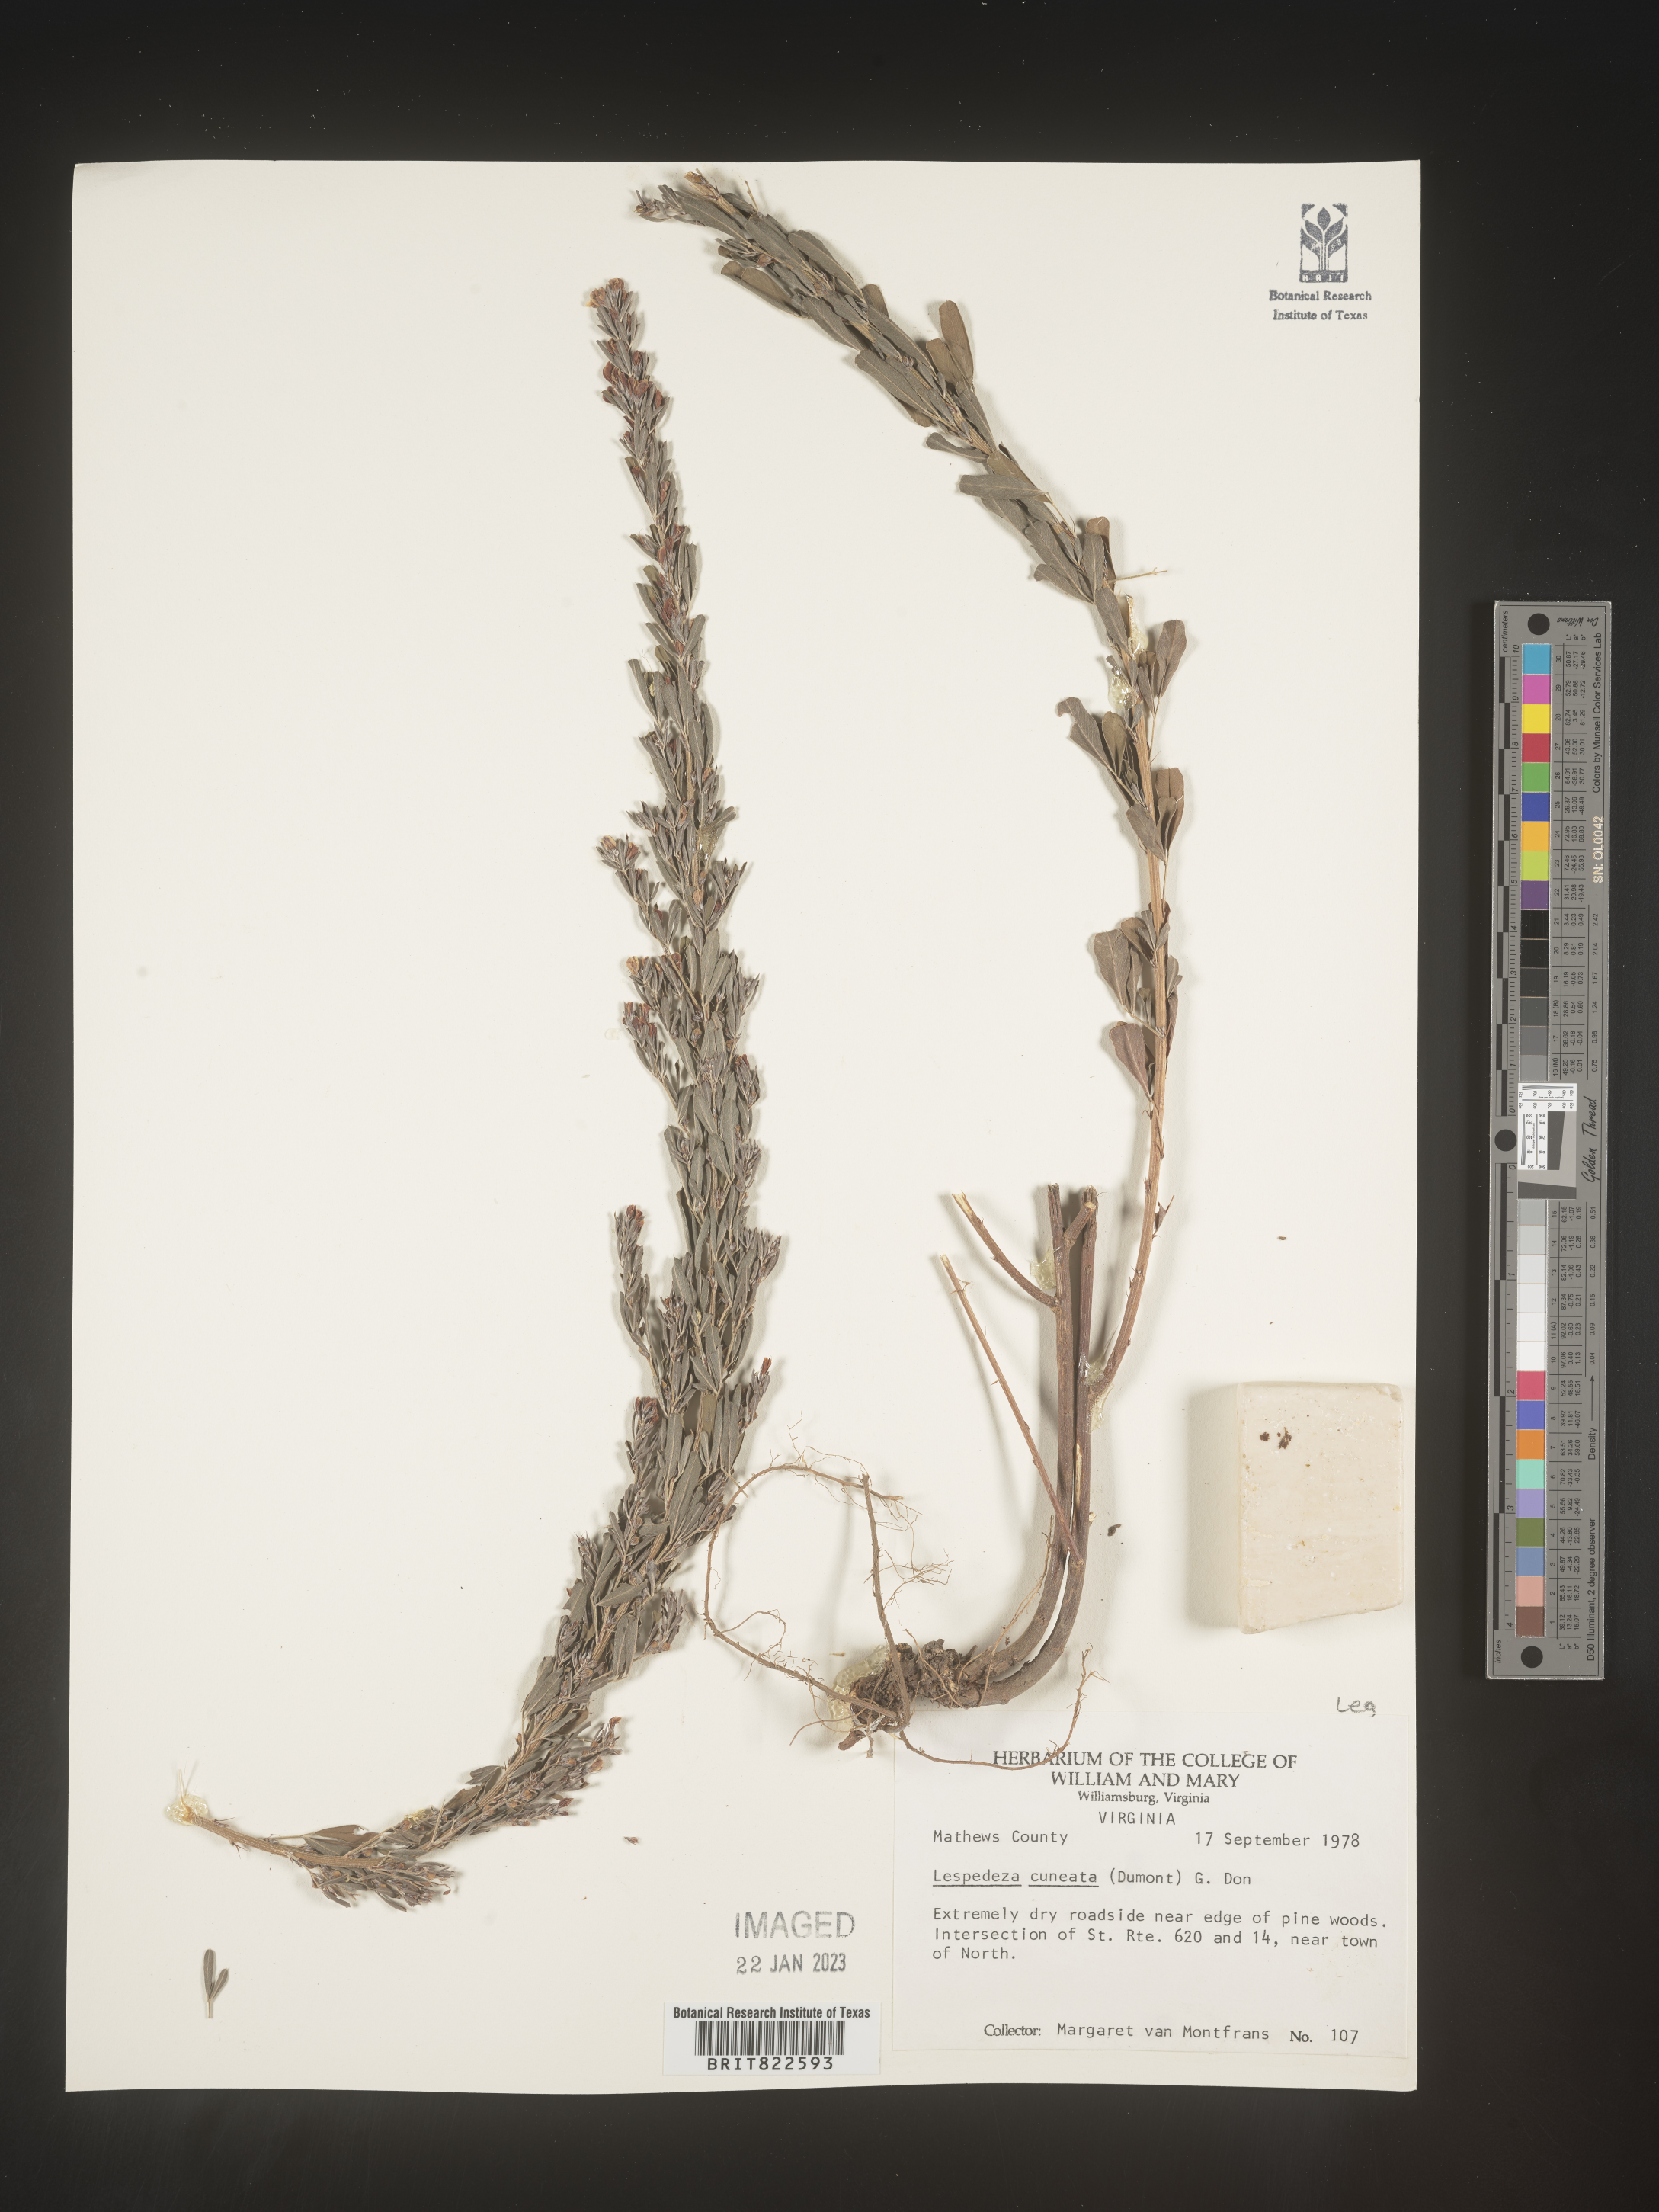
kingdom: Plantae
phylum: Tracheophyta
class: Magnoliopsida
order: Fabales
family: Fabaceae
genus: Lespedeza
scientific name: Lespedeza cuneata
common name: Chinese bush-clover
